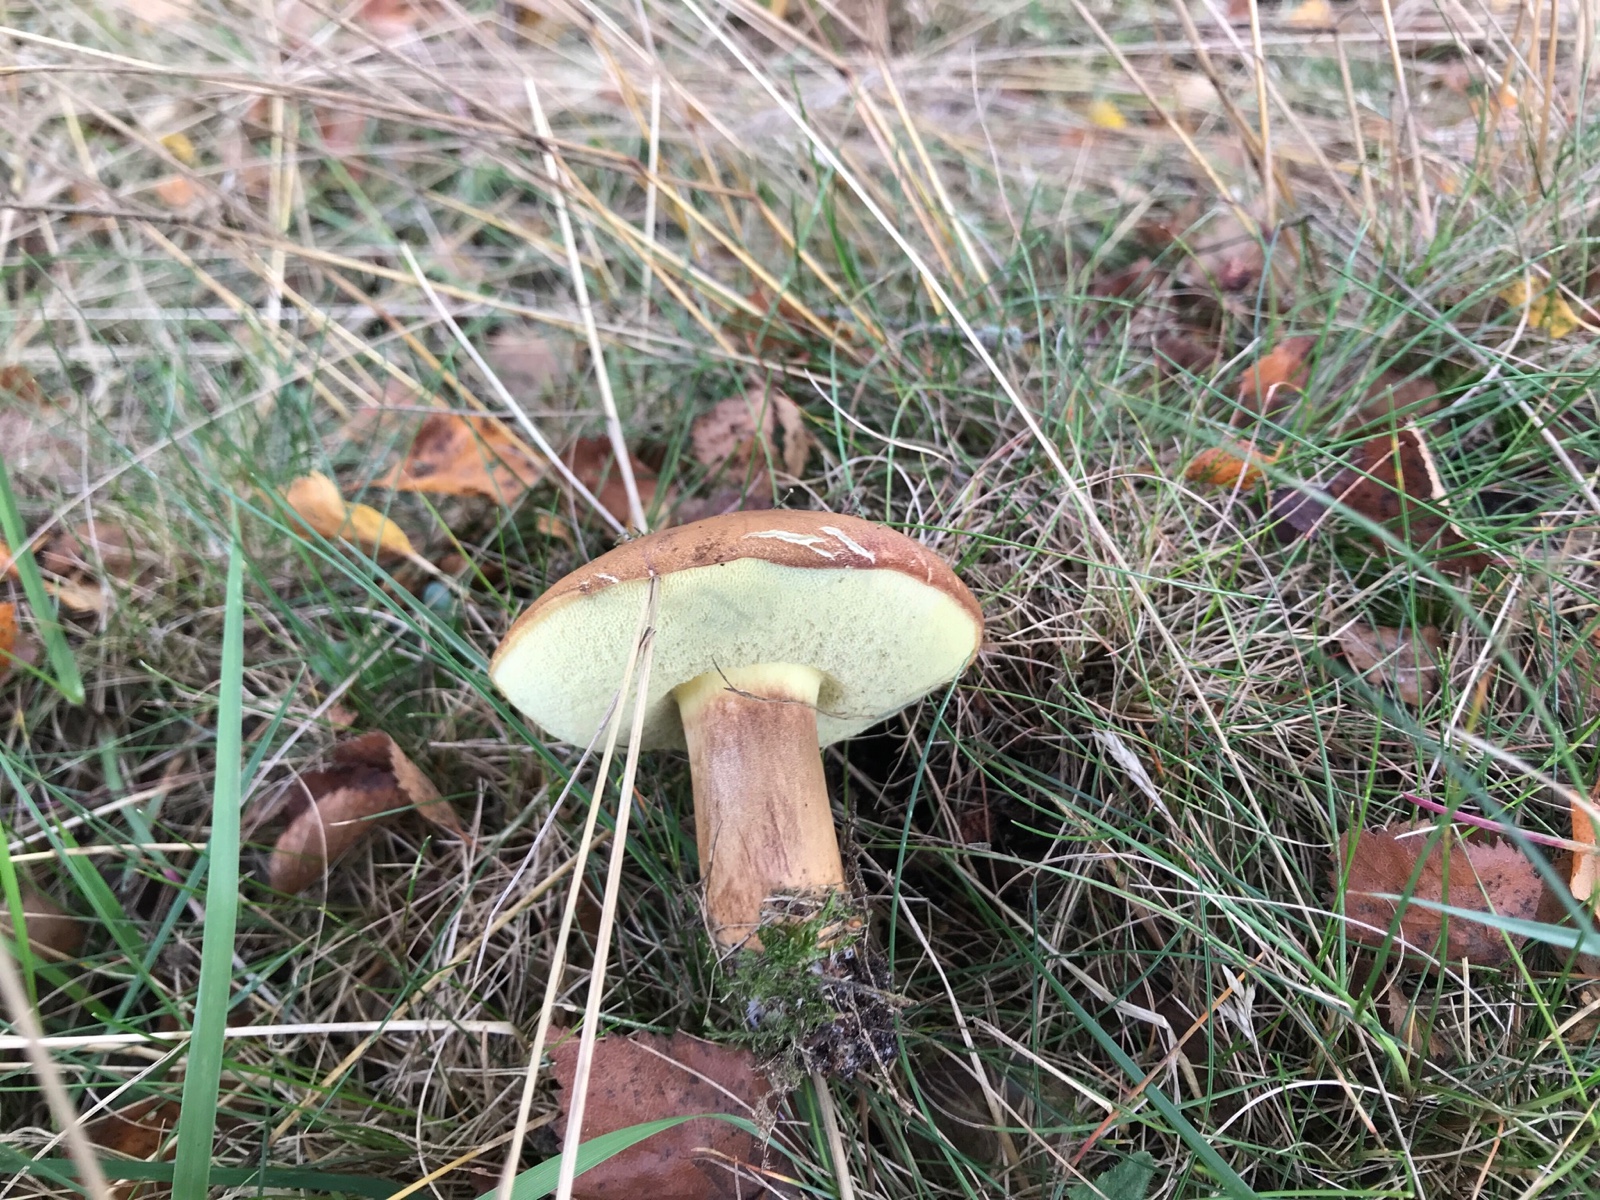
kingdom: Fungi
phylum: Basidiomycota
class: Agaricomycetes
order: Boletales
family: Boletaceae
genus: Imleria
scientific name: Imleria badia
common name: brunstokket rørhat
